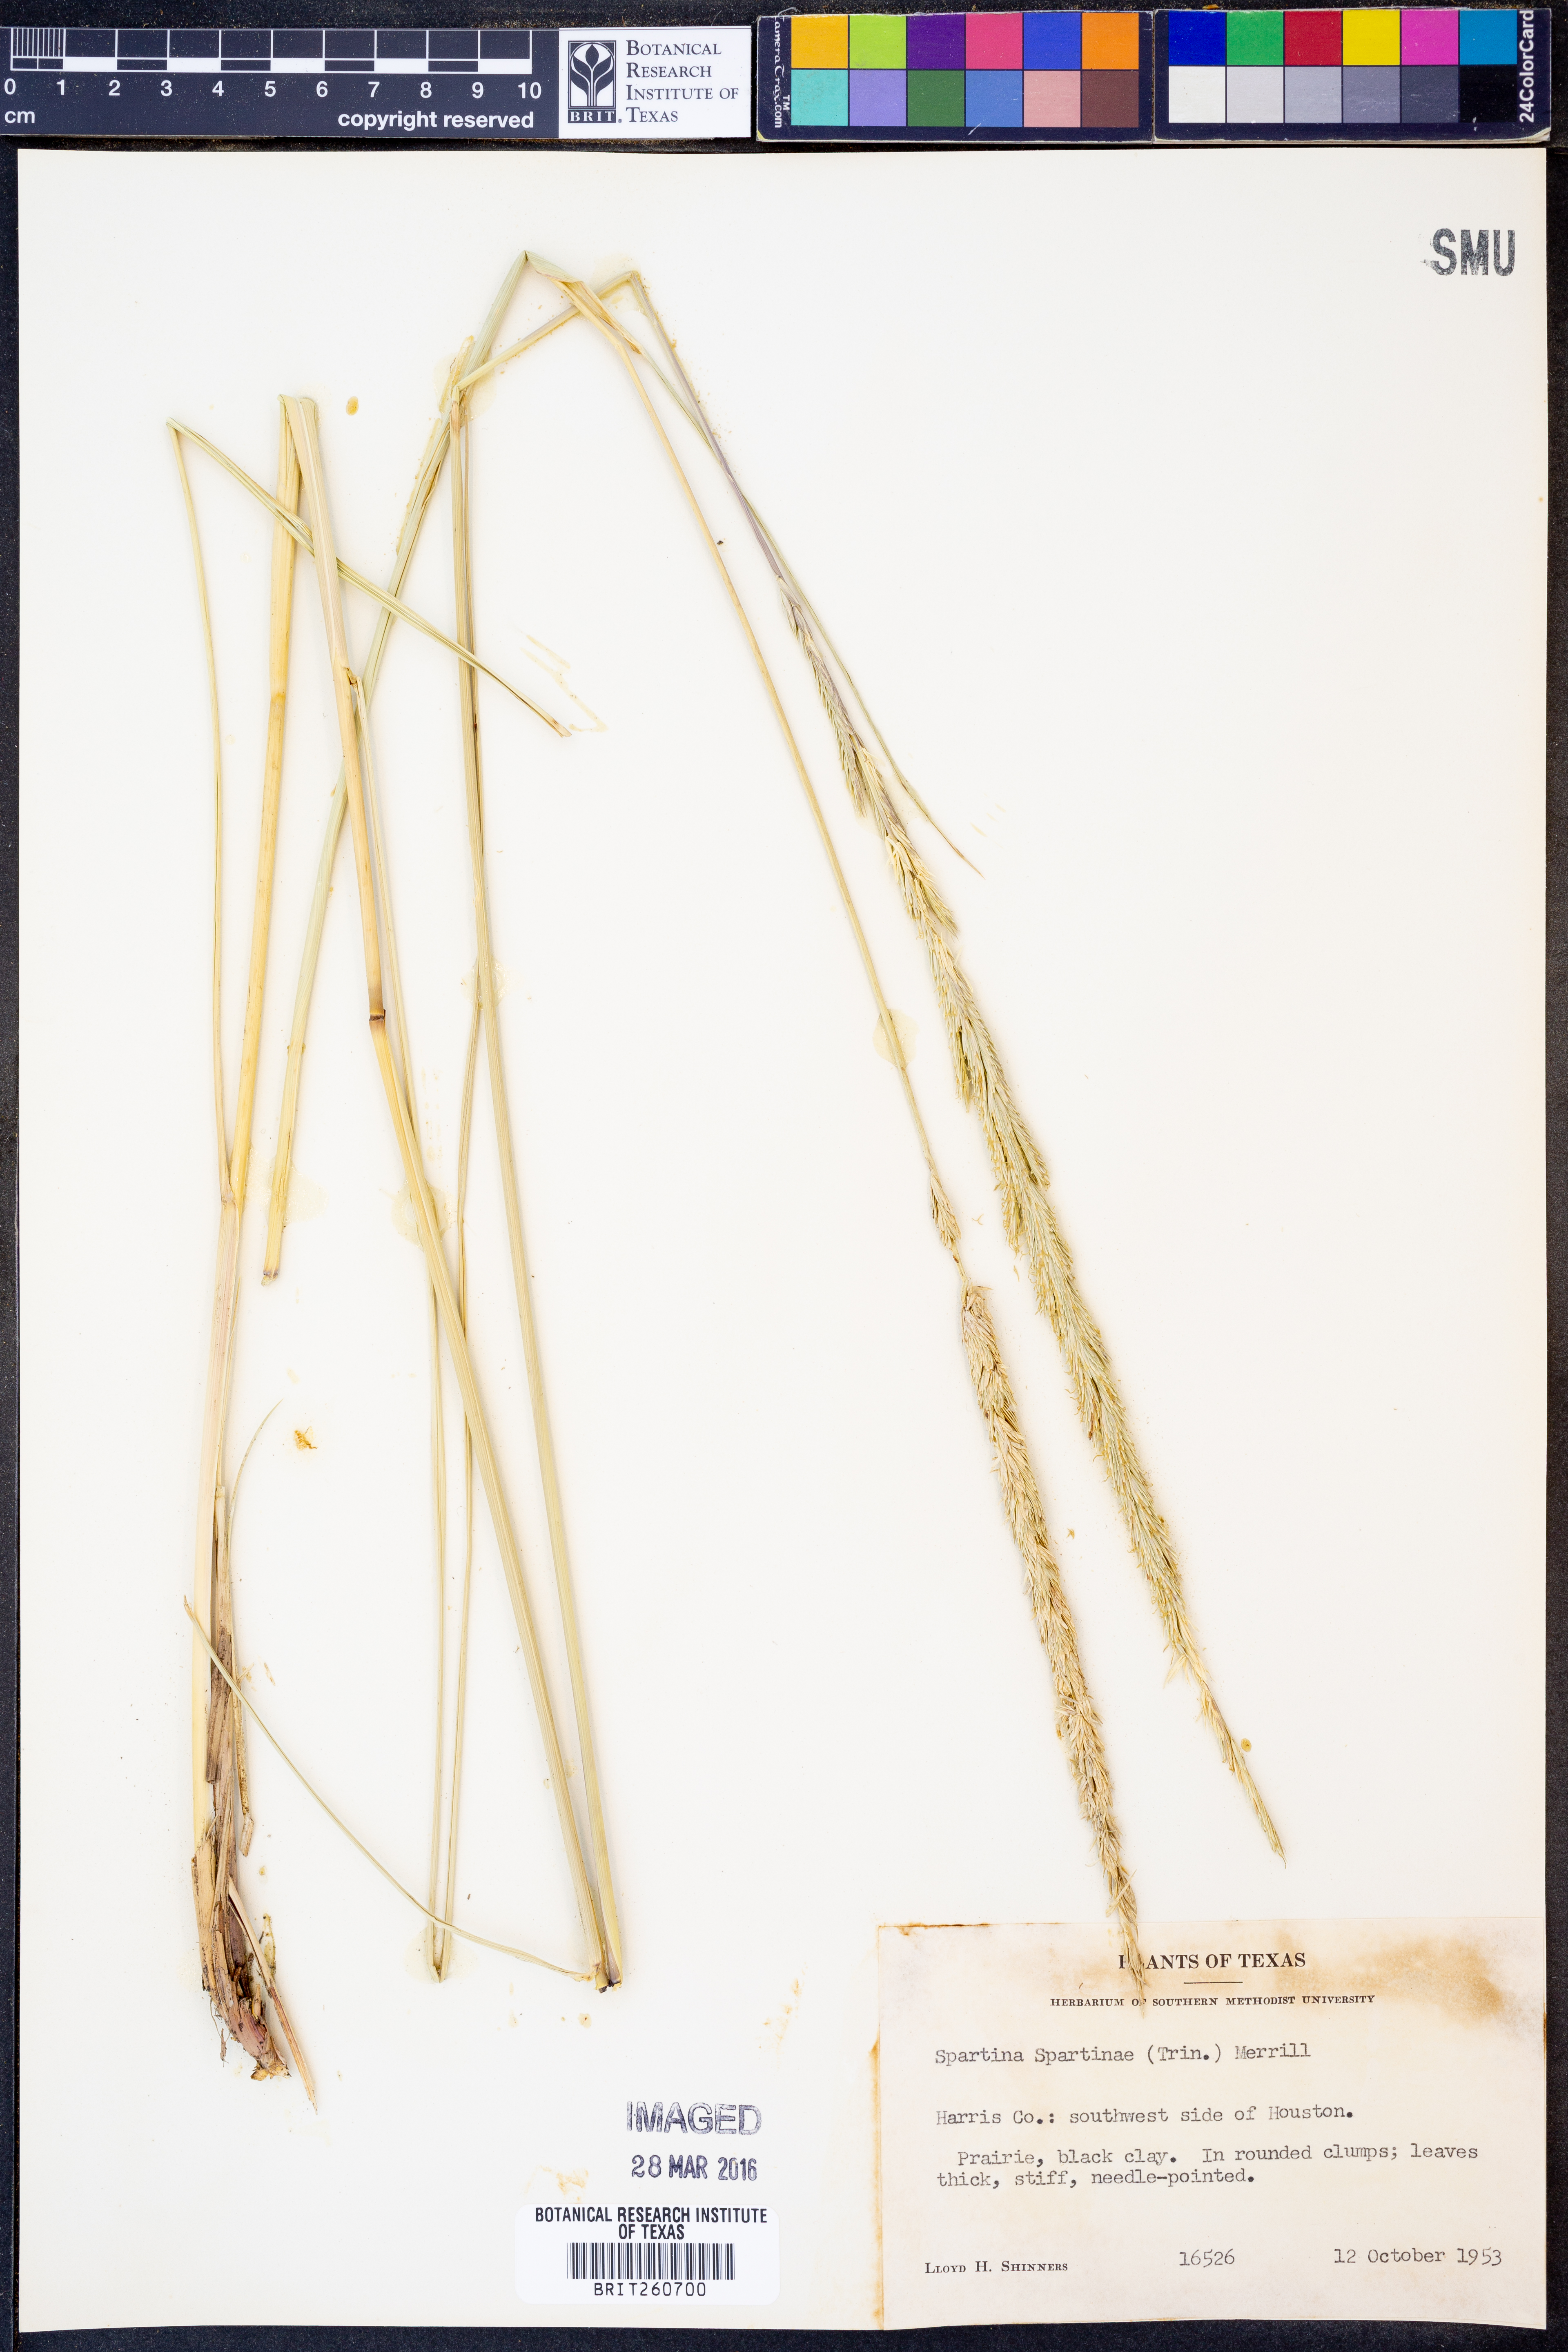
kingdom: Plantae
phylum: Tracheophyta
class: Liliopsida
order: Poales
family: Poaceae
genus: Sporobolus
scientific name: Sporobolus spartinae
